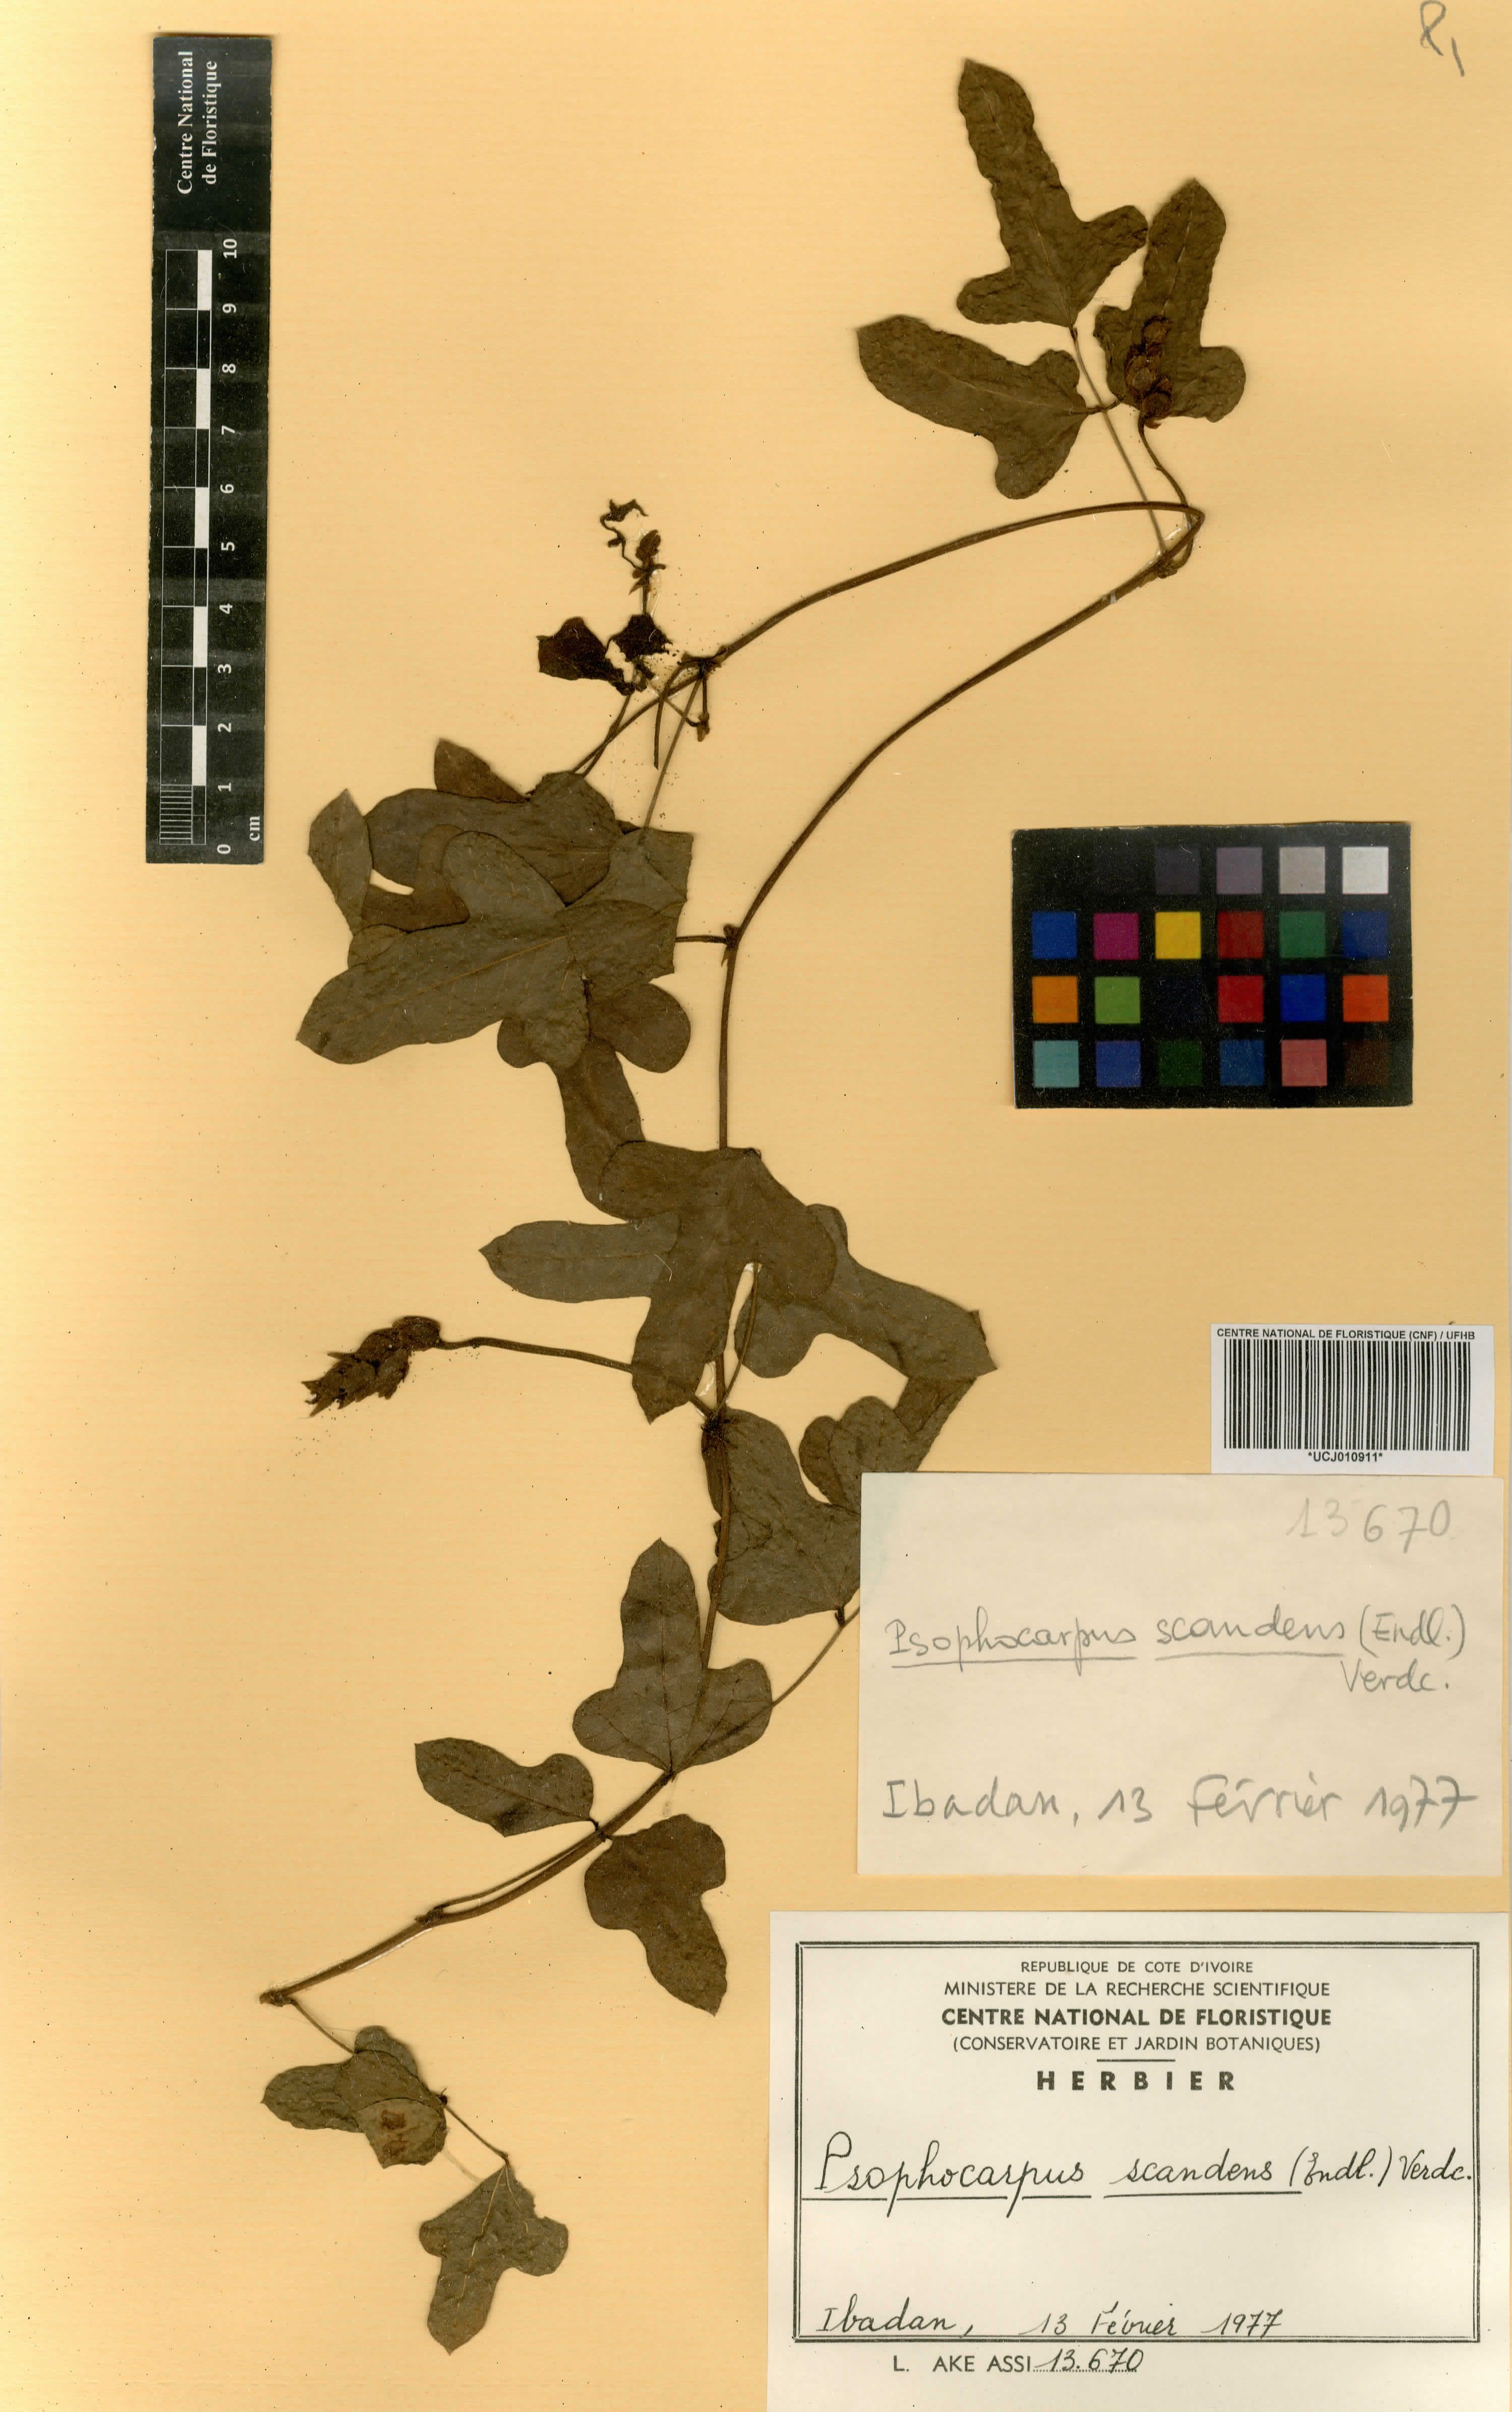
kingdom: Plantae
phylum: Tracheophyta
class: Magnoliopsida
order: Fabales
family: Fabaceae
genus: Psophocarpus
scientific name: Psophocarpus scandens
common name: Tropical african winged-bean
